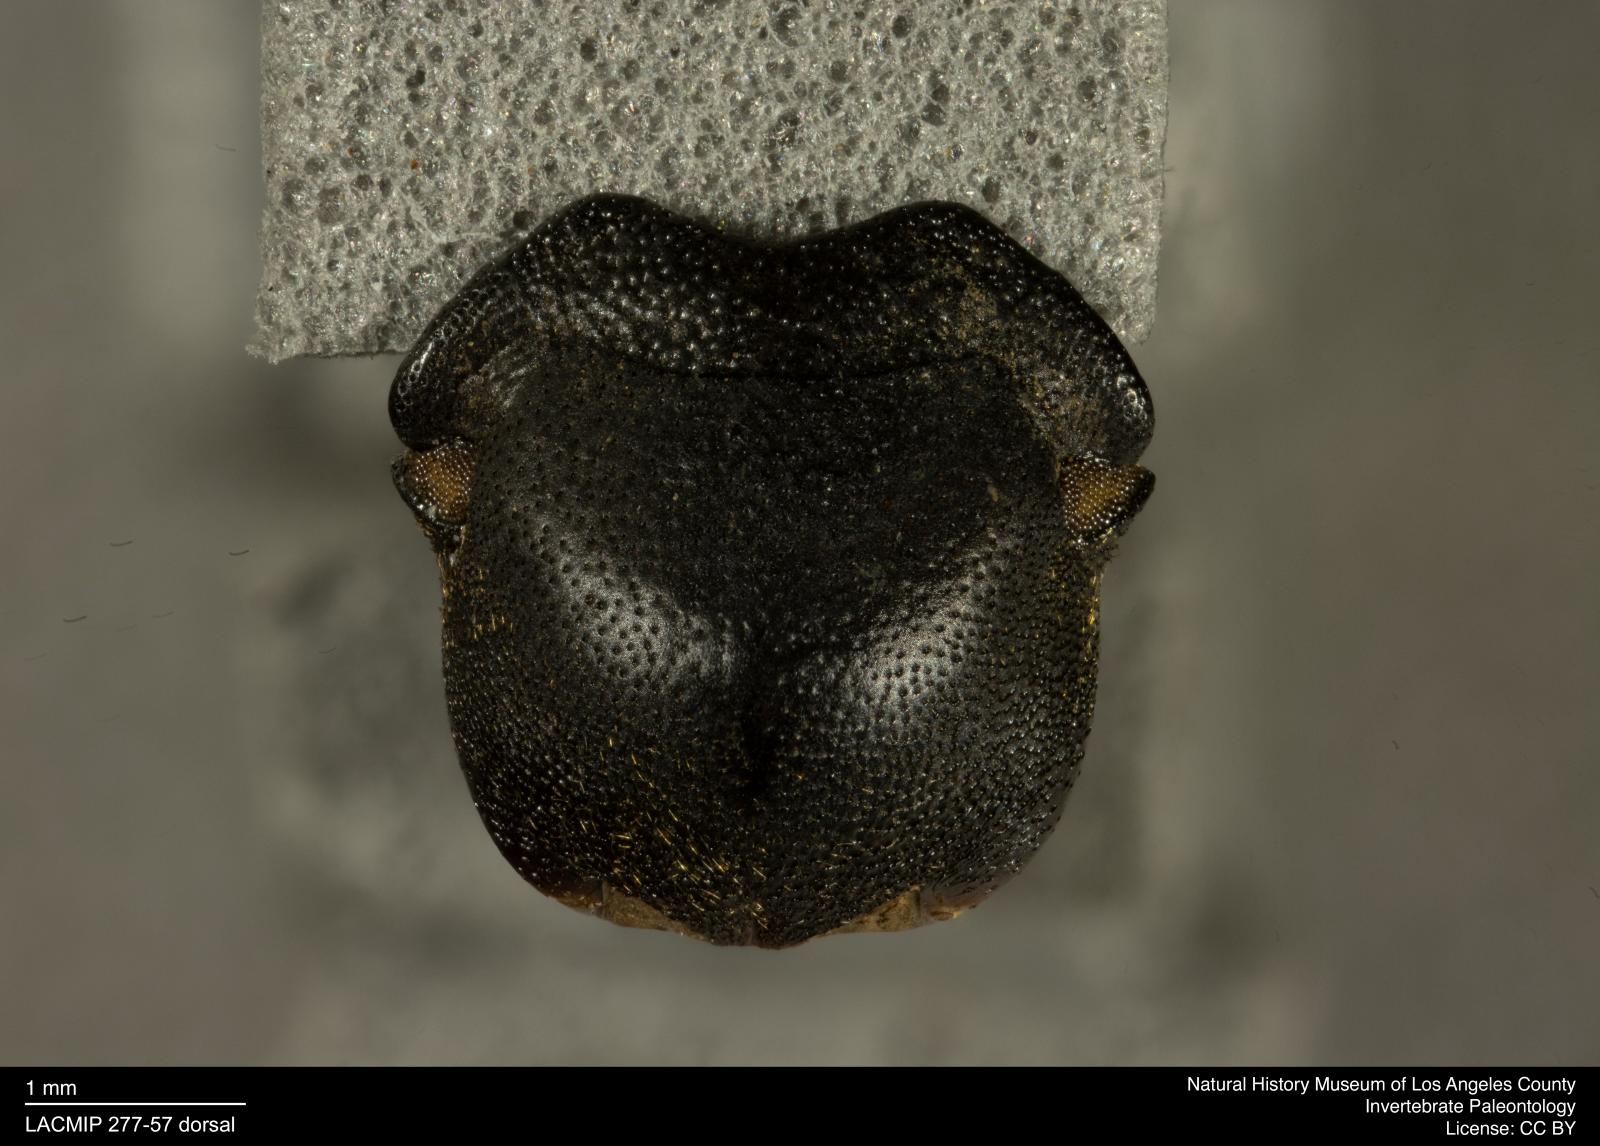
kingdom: Animalia
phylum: Arthropoda
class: Insecta
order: Coleoptera
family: Tenebrionidae
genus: Coniontis
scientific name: Coniontis abdominalis
